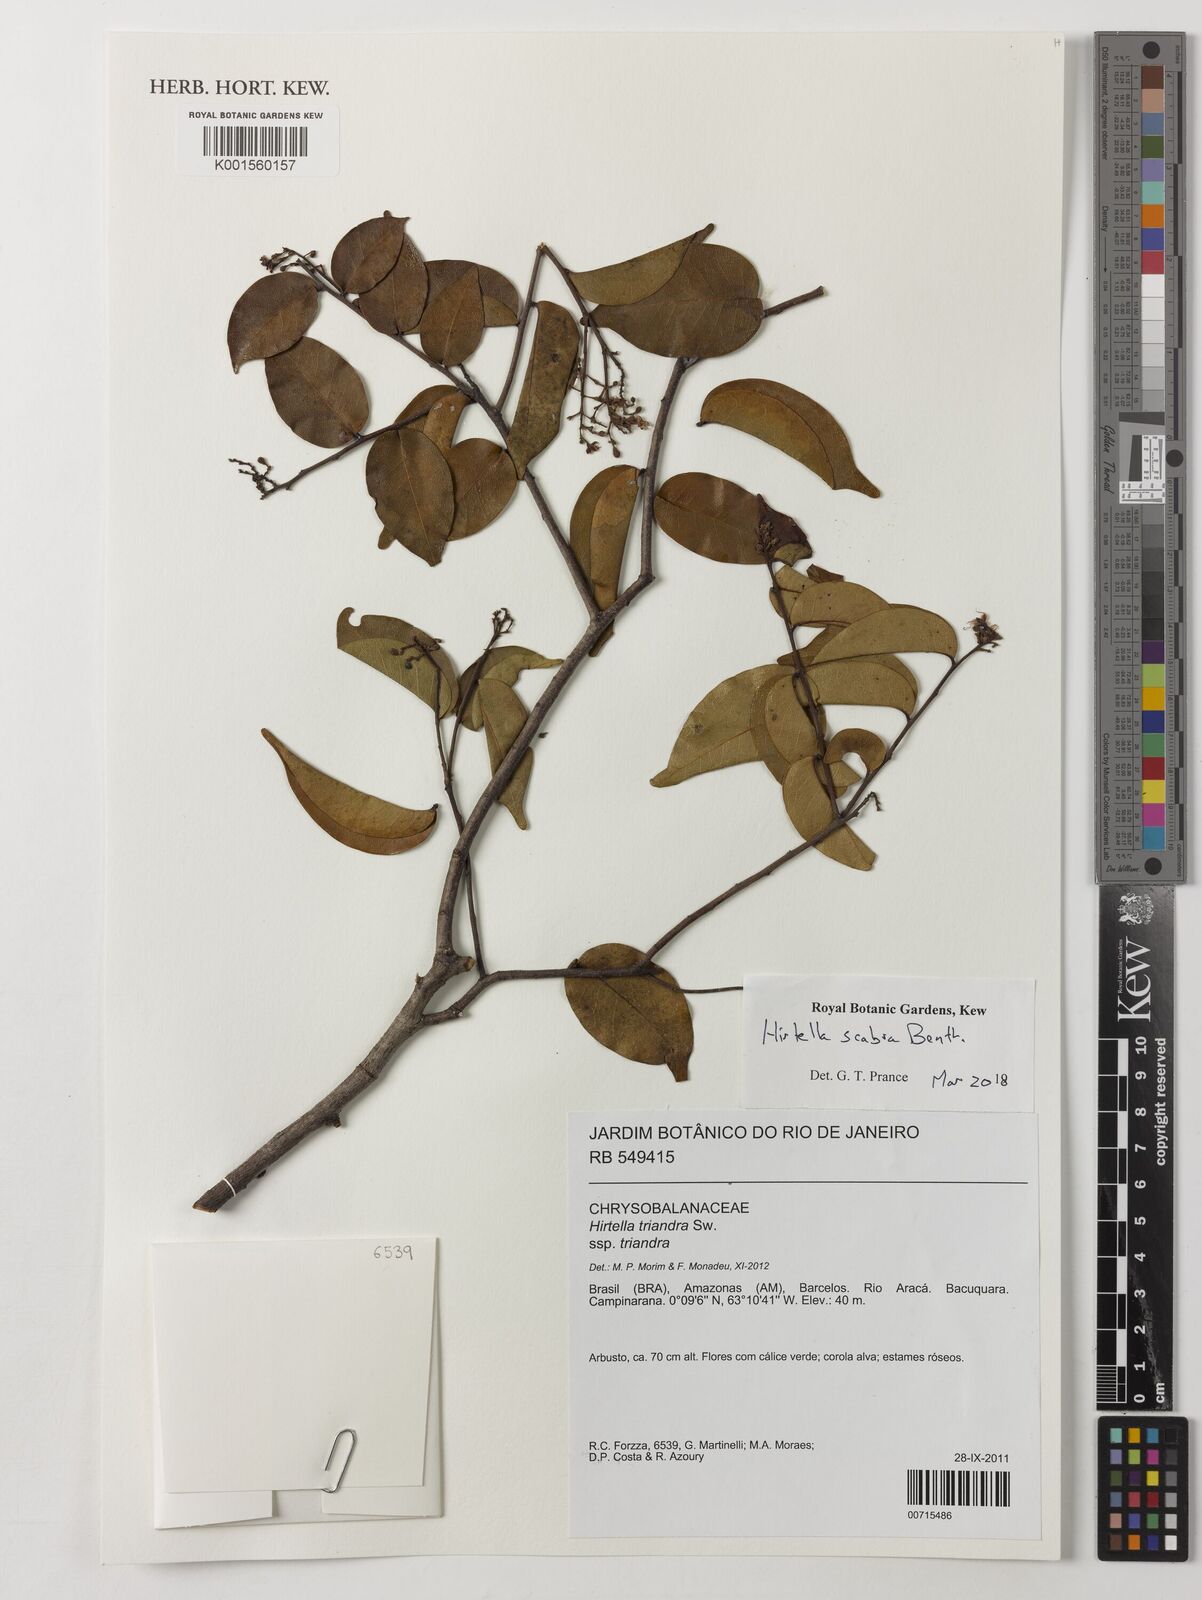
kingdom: Plantae
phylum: Tracheophyta
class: Magnoliopsida
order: Malpighiales
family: Chrysobalanaceae
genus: Hirtella
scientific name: Hirtella scabra
